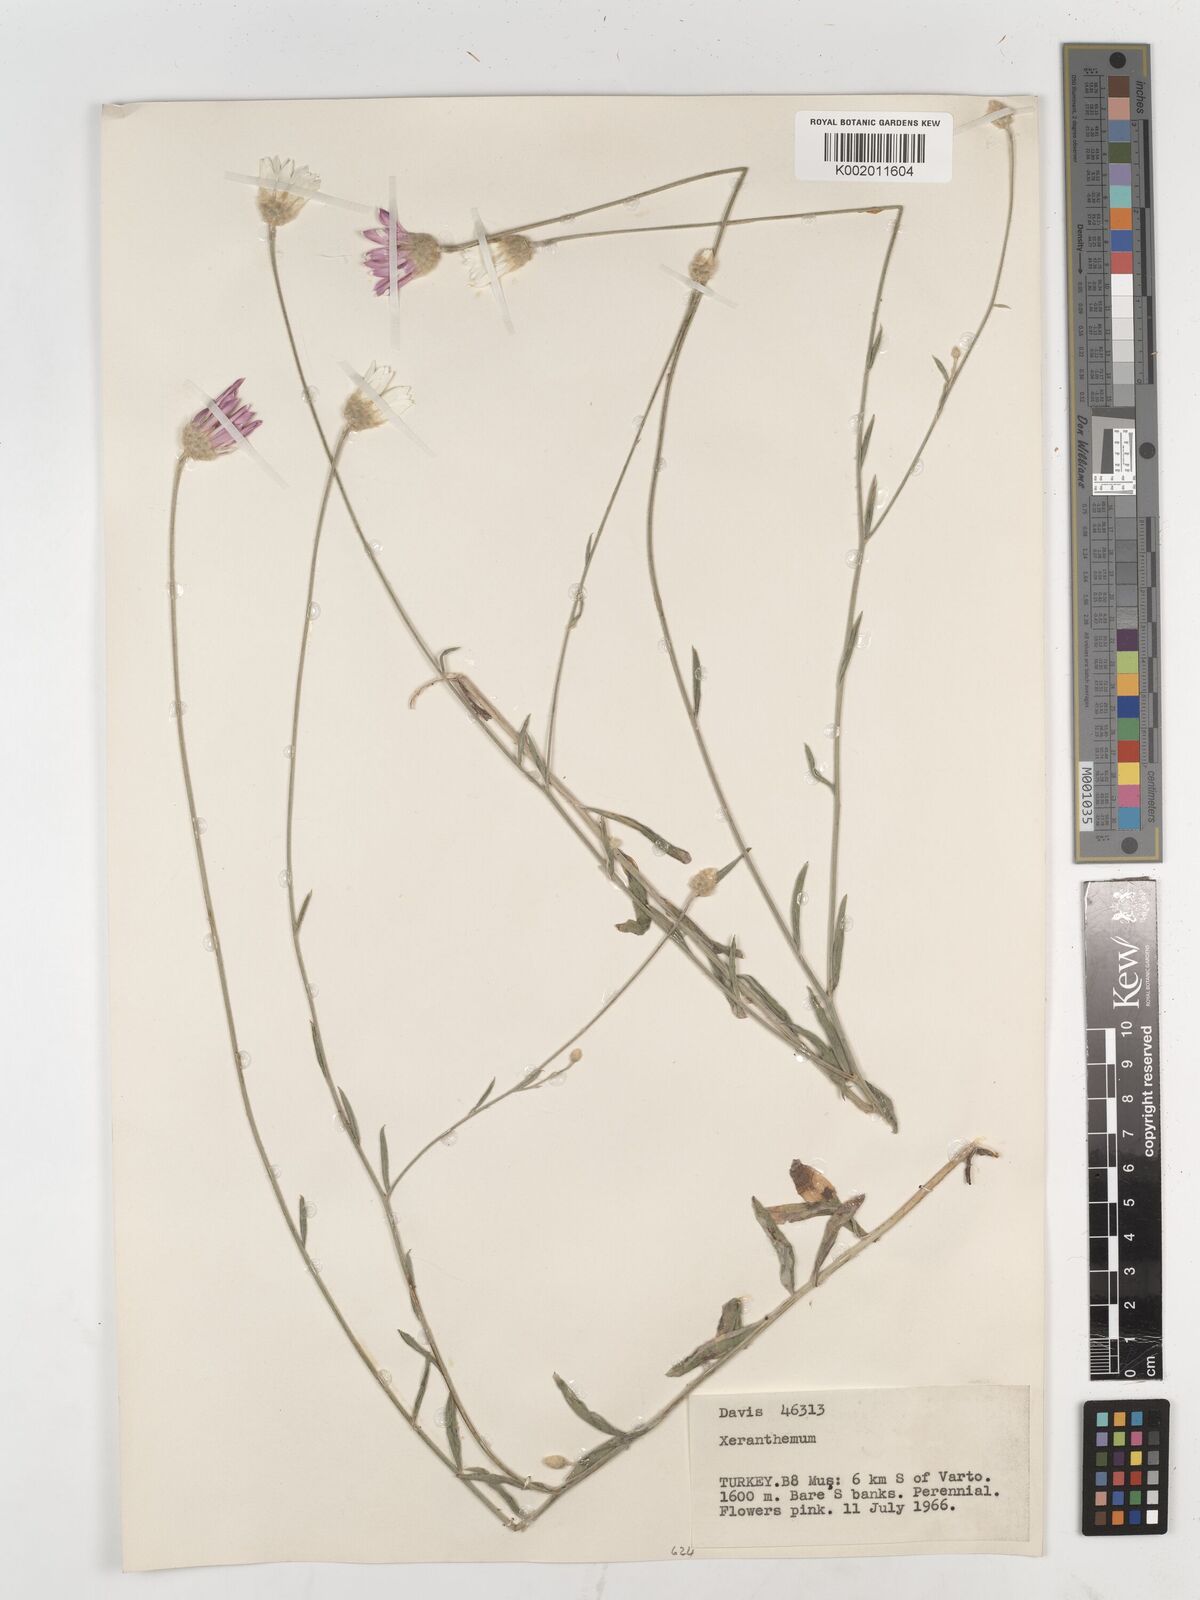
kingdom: Plantae
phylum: Tracheophyta
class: Magnoliopsida
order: Asterales
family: Asteraceae
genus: Xeranthemum
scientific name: Xeranthemum annuum
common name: Immortelle
